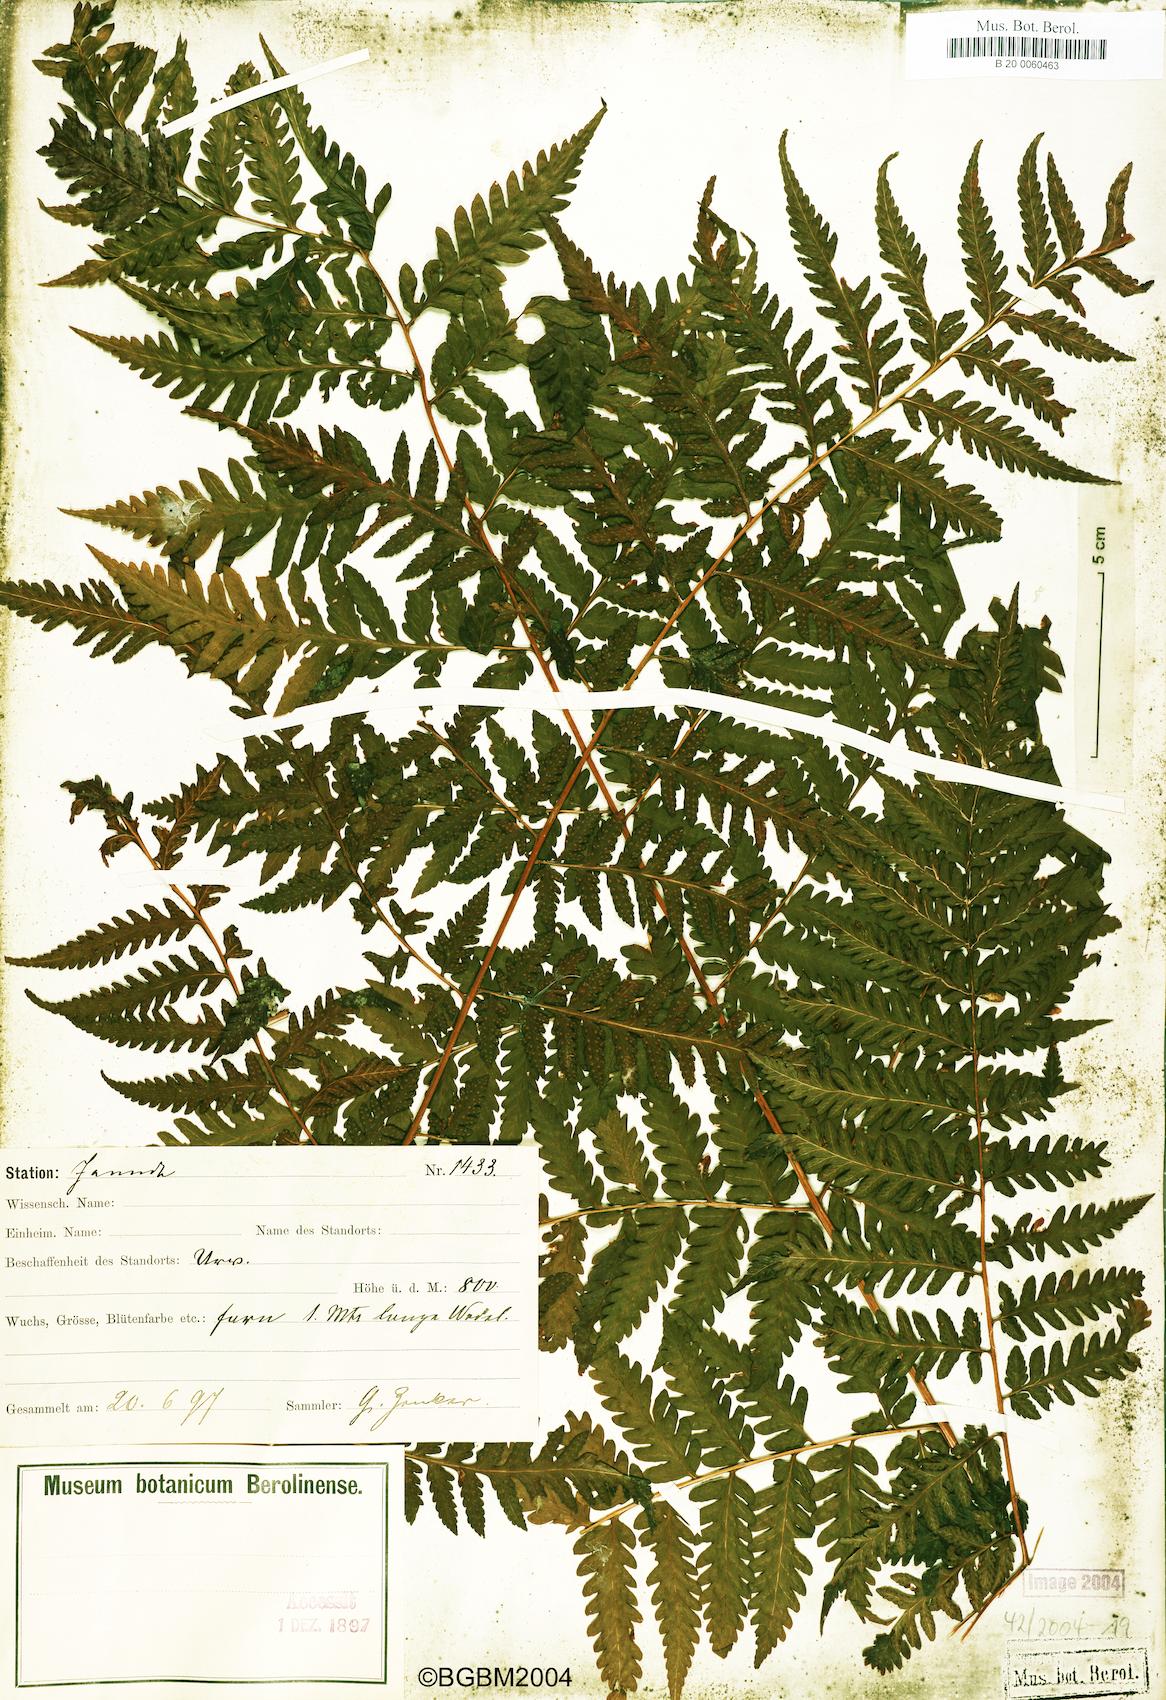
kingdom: Plantae
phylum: Tracheophyta
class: Polypodiopsida
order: Polypodiales
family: Dryopteridaceae
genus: Parapolystichum
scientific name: Parapolystichum nigritianum
